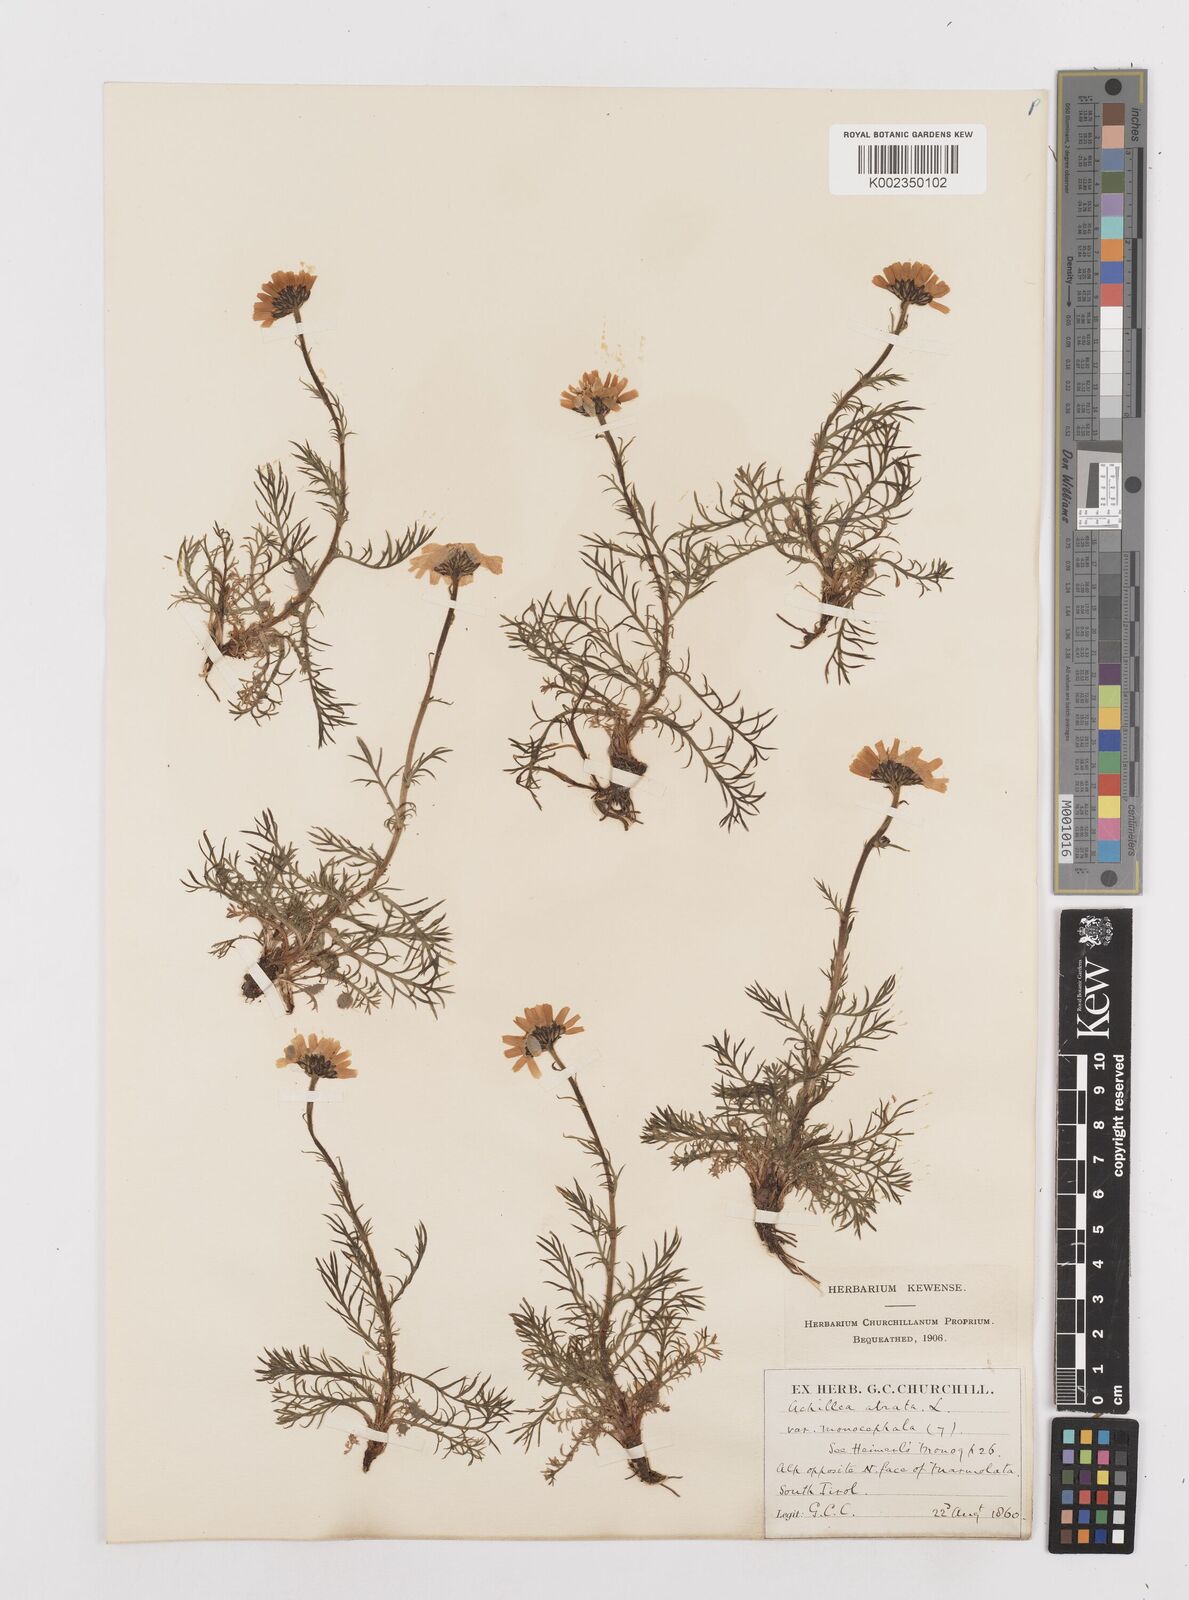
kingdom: Plantae
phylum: Tracheophyta
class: Magnoliopsida
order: Asterales
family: Asteraceae
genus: Achillea
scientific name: Achillea atrata
